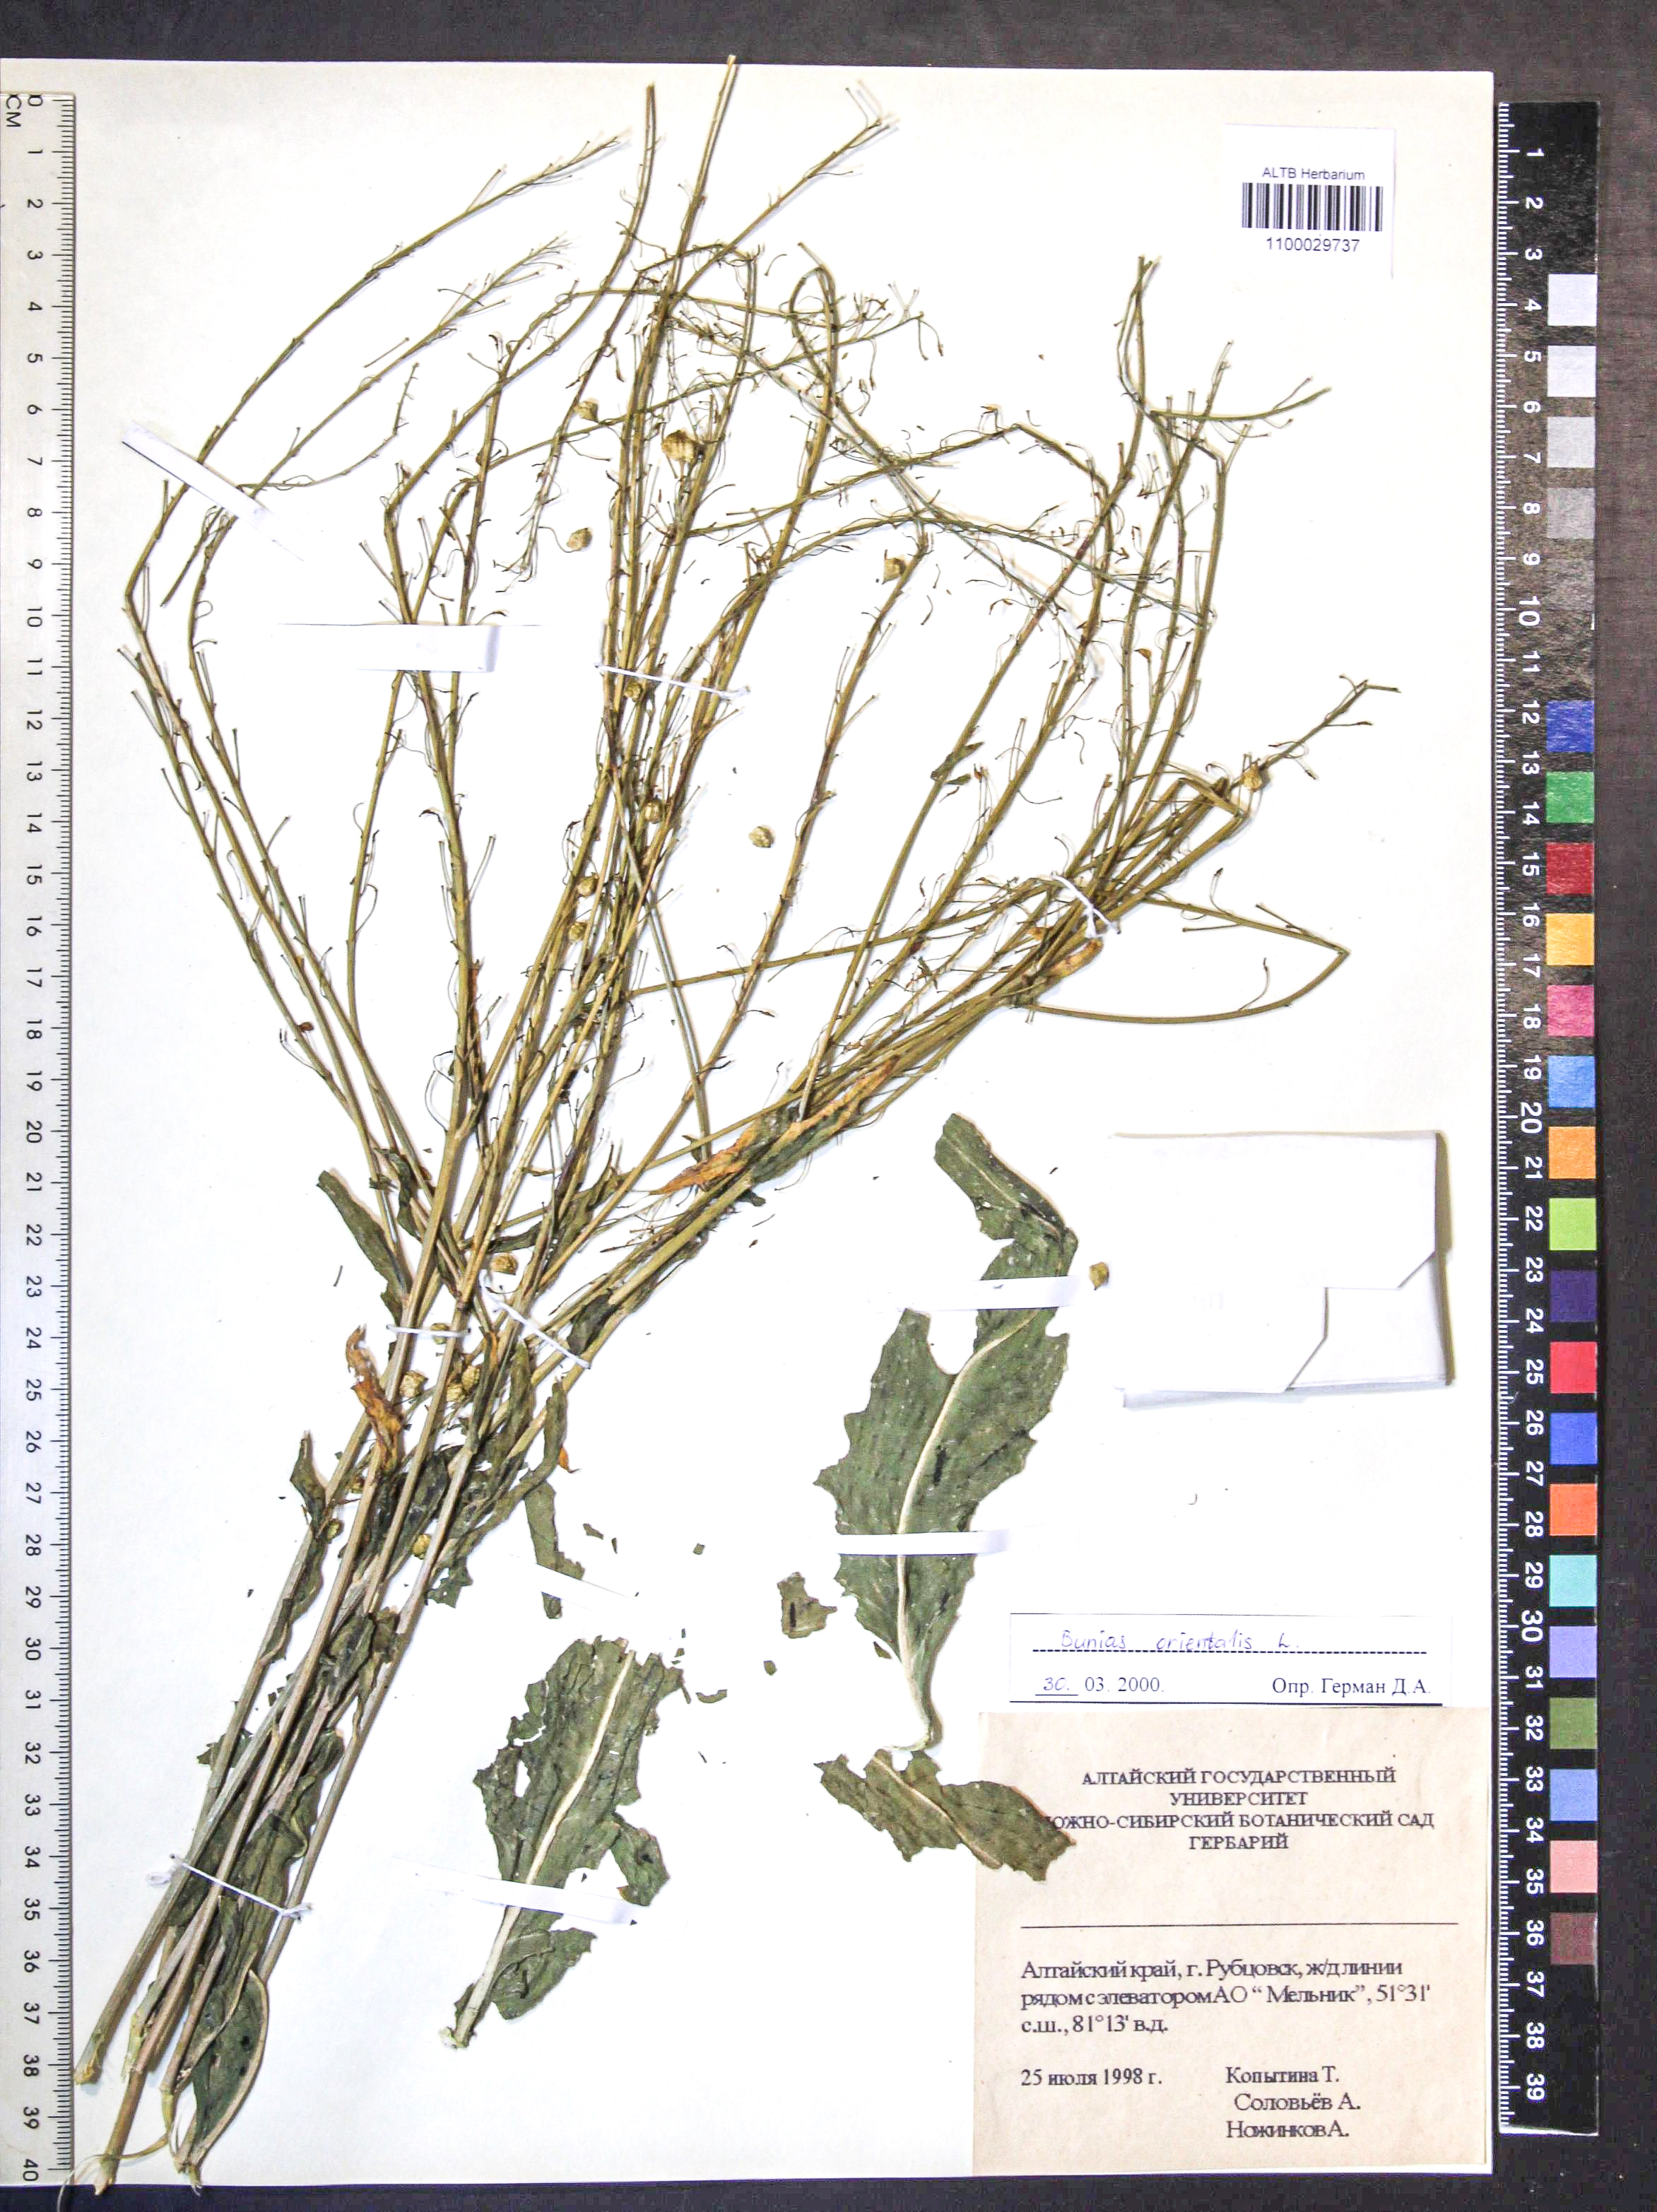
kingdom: Plantae
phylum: Tracheophyta
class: Magnoliopsida
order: Brassicales
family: Brassicaceae
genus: Bunias
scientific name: Bunias orientalis
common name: Warty-cabbage
